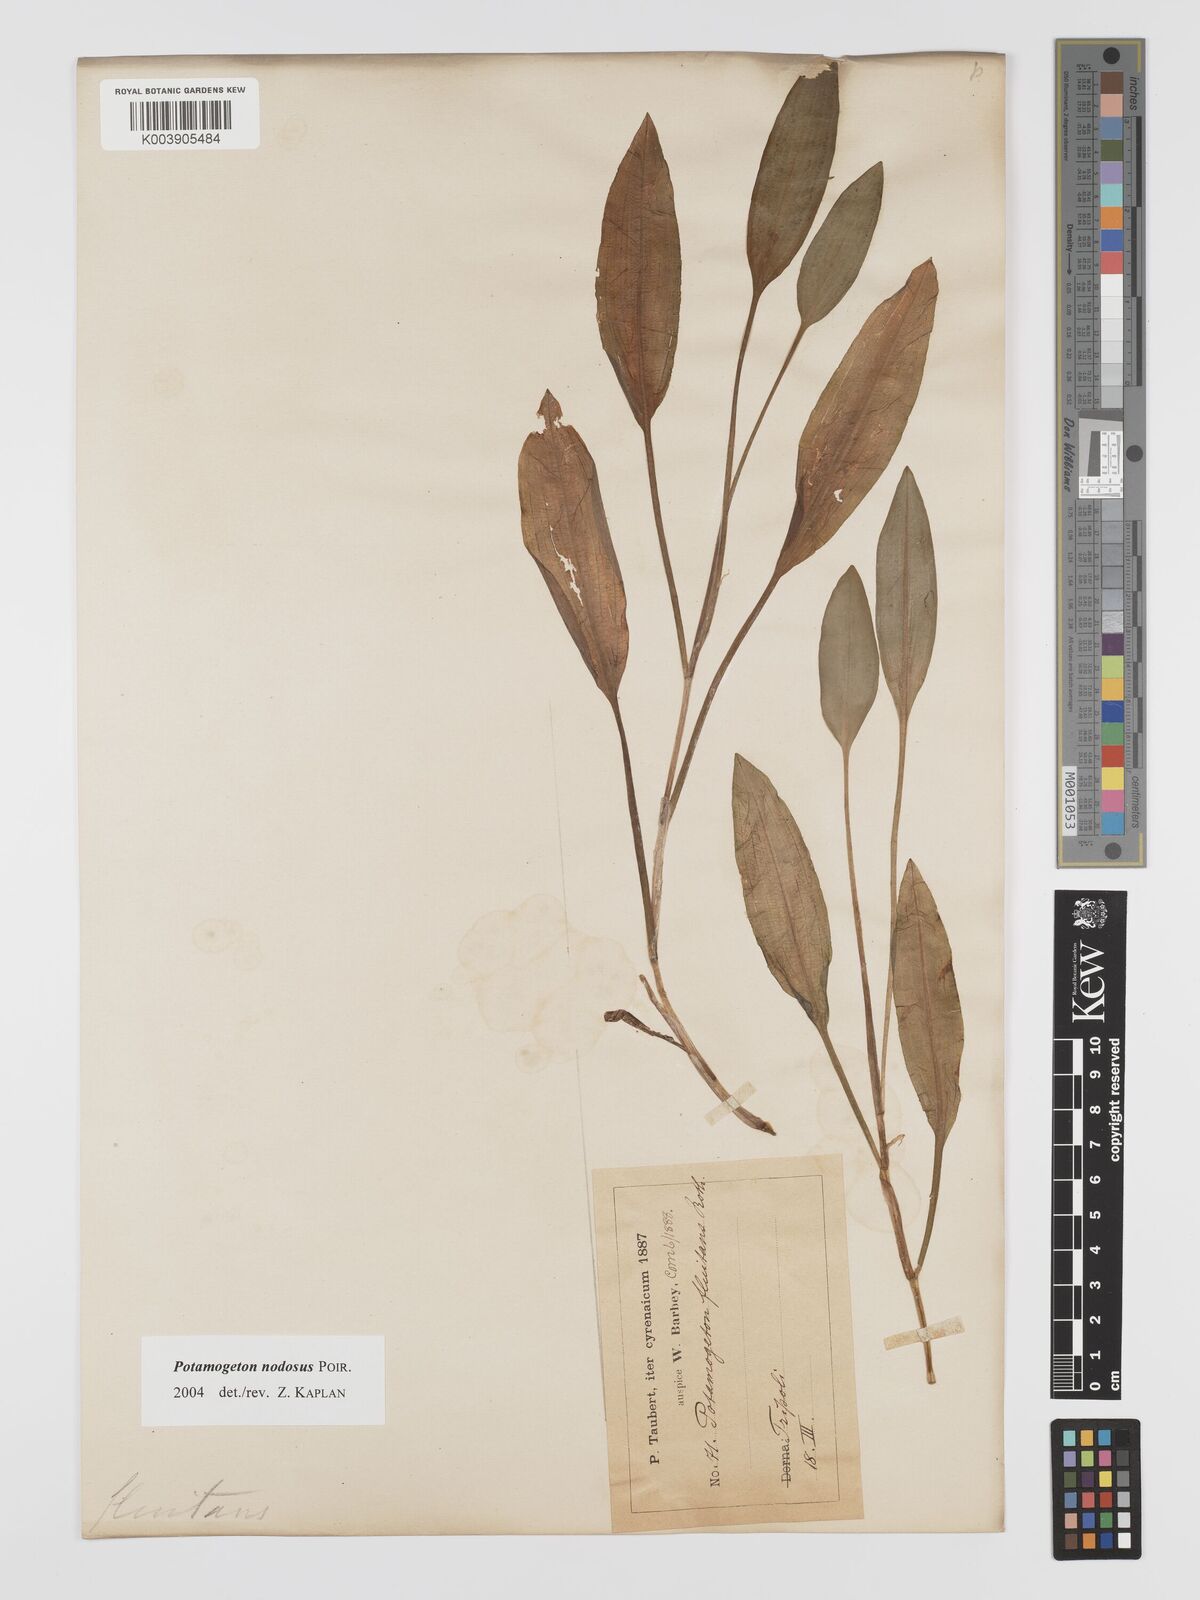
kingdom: Plantae
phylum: Tracheophyta
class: Liliopsida
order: Alismatales
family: Potamogetonaceae
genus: Potamogeton
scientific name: Potamogeton nodosus
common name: Loddon pondweed
